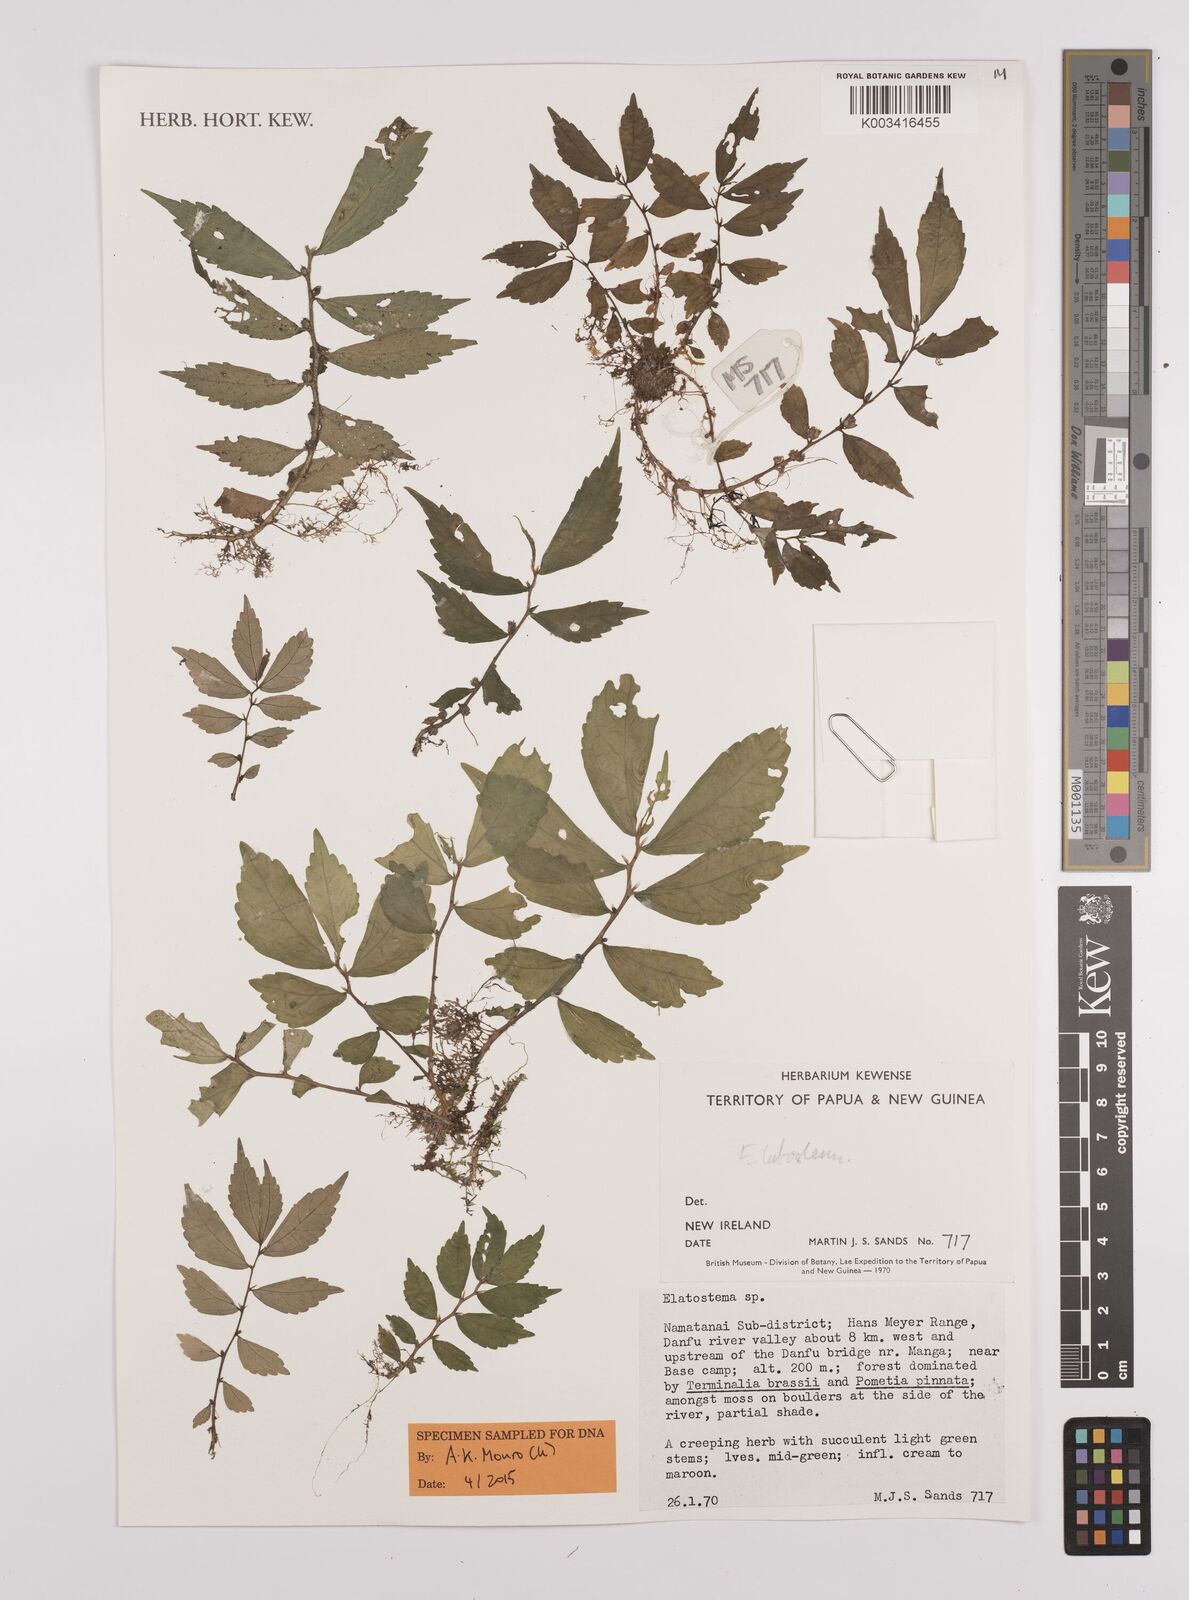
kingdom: Plantae
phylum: Tracheophyta
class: Magnoliopsida
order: Rosales
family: Urticaceae
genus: Elatostema
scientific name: Elatostema
